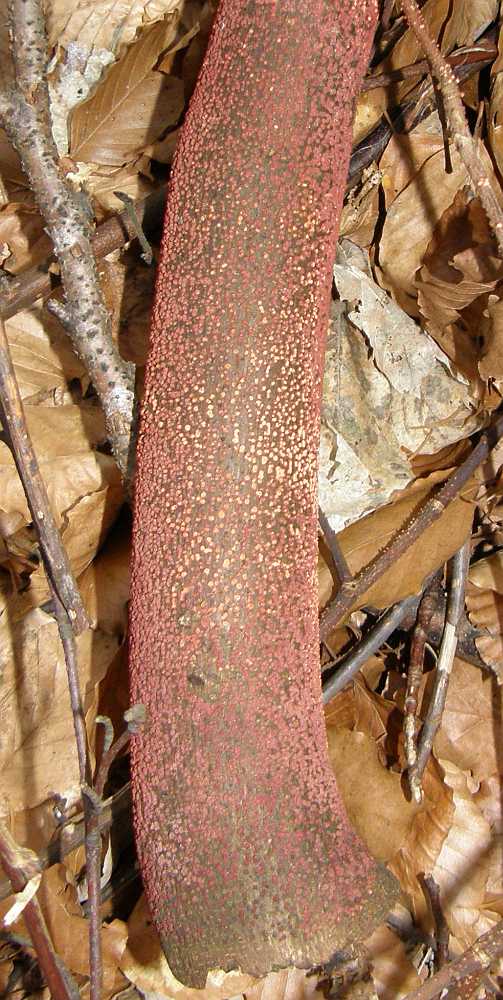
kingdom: Fungi
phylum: Ascomycota
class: Sordariomycetes
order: Hypocreales
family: Nectriaceae
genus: Nectria
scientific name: Nectria cinnabarina
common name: almindelig cinnobersvamp
